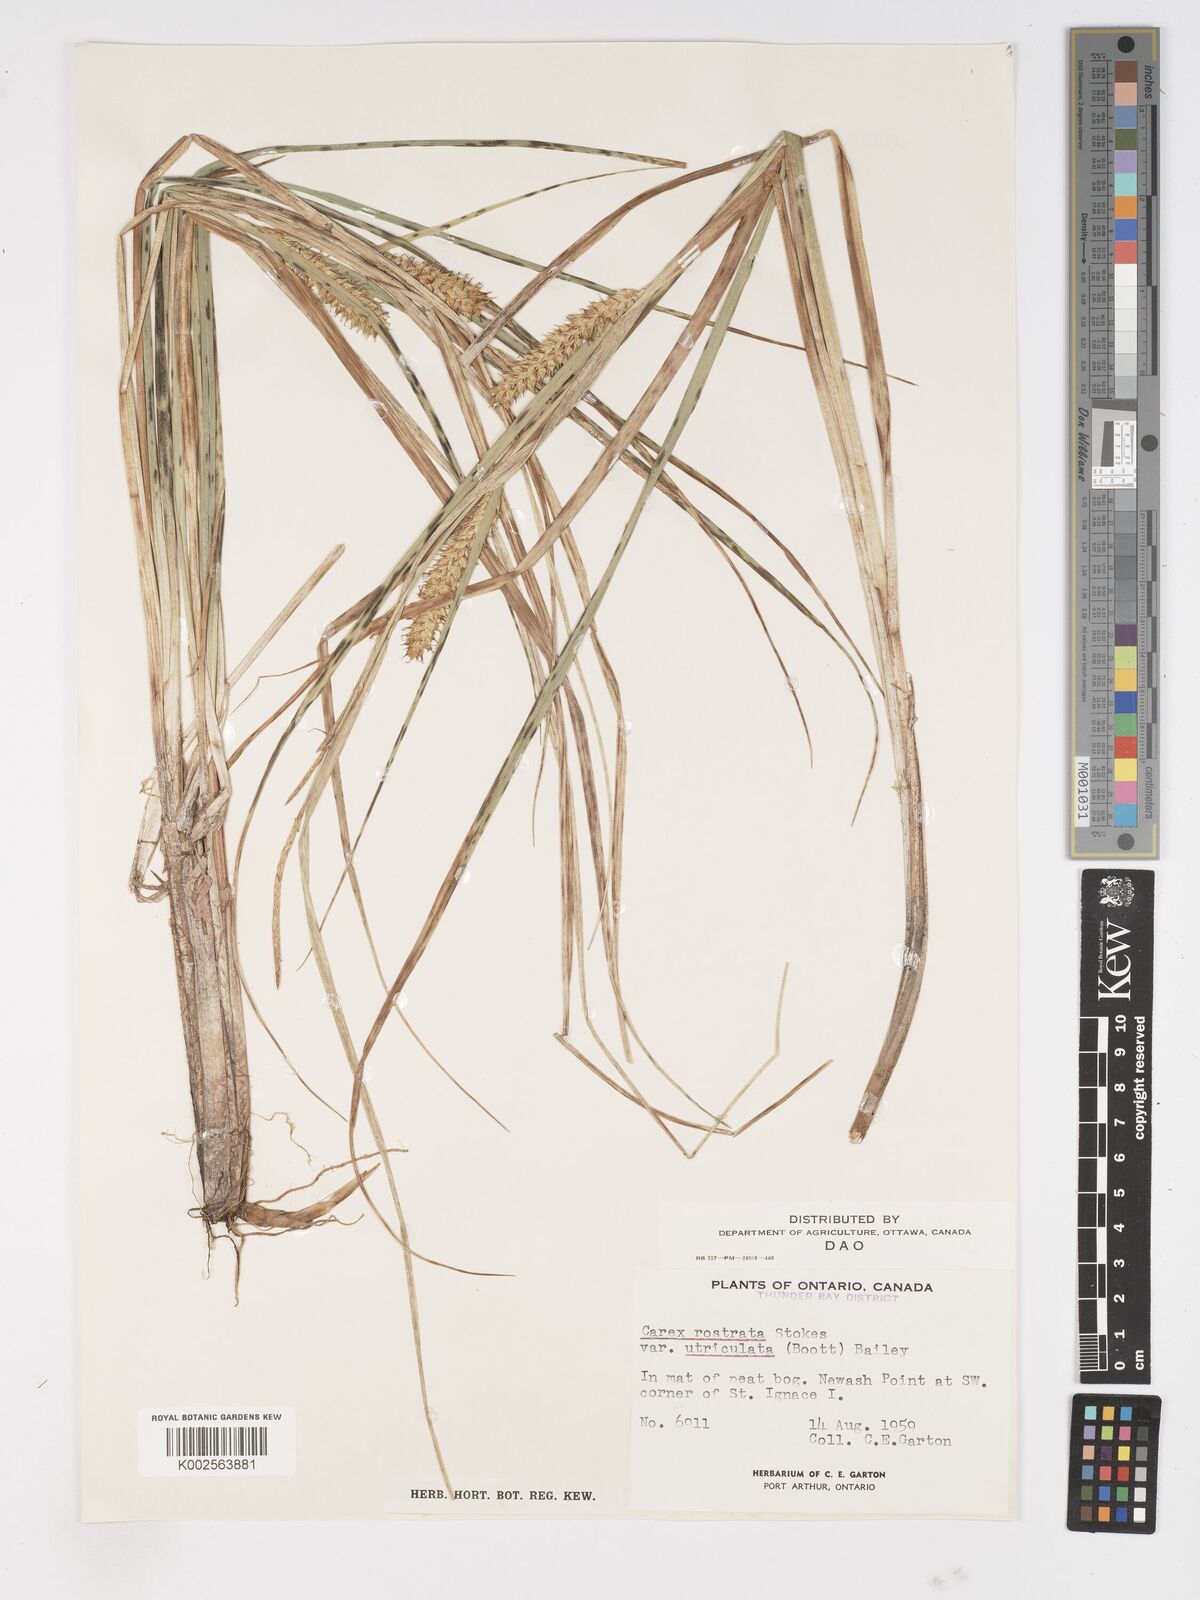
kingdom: Plantae
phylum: Tracheophyta
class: Liliopsida
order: Poales
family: Cyperaceae
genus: Carex
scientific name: Carex rostrata
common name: Bottle sedge
